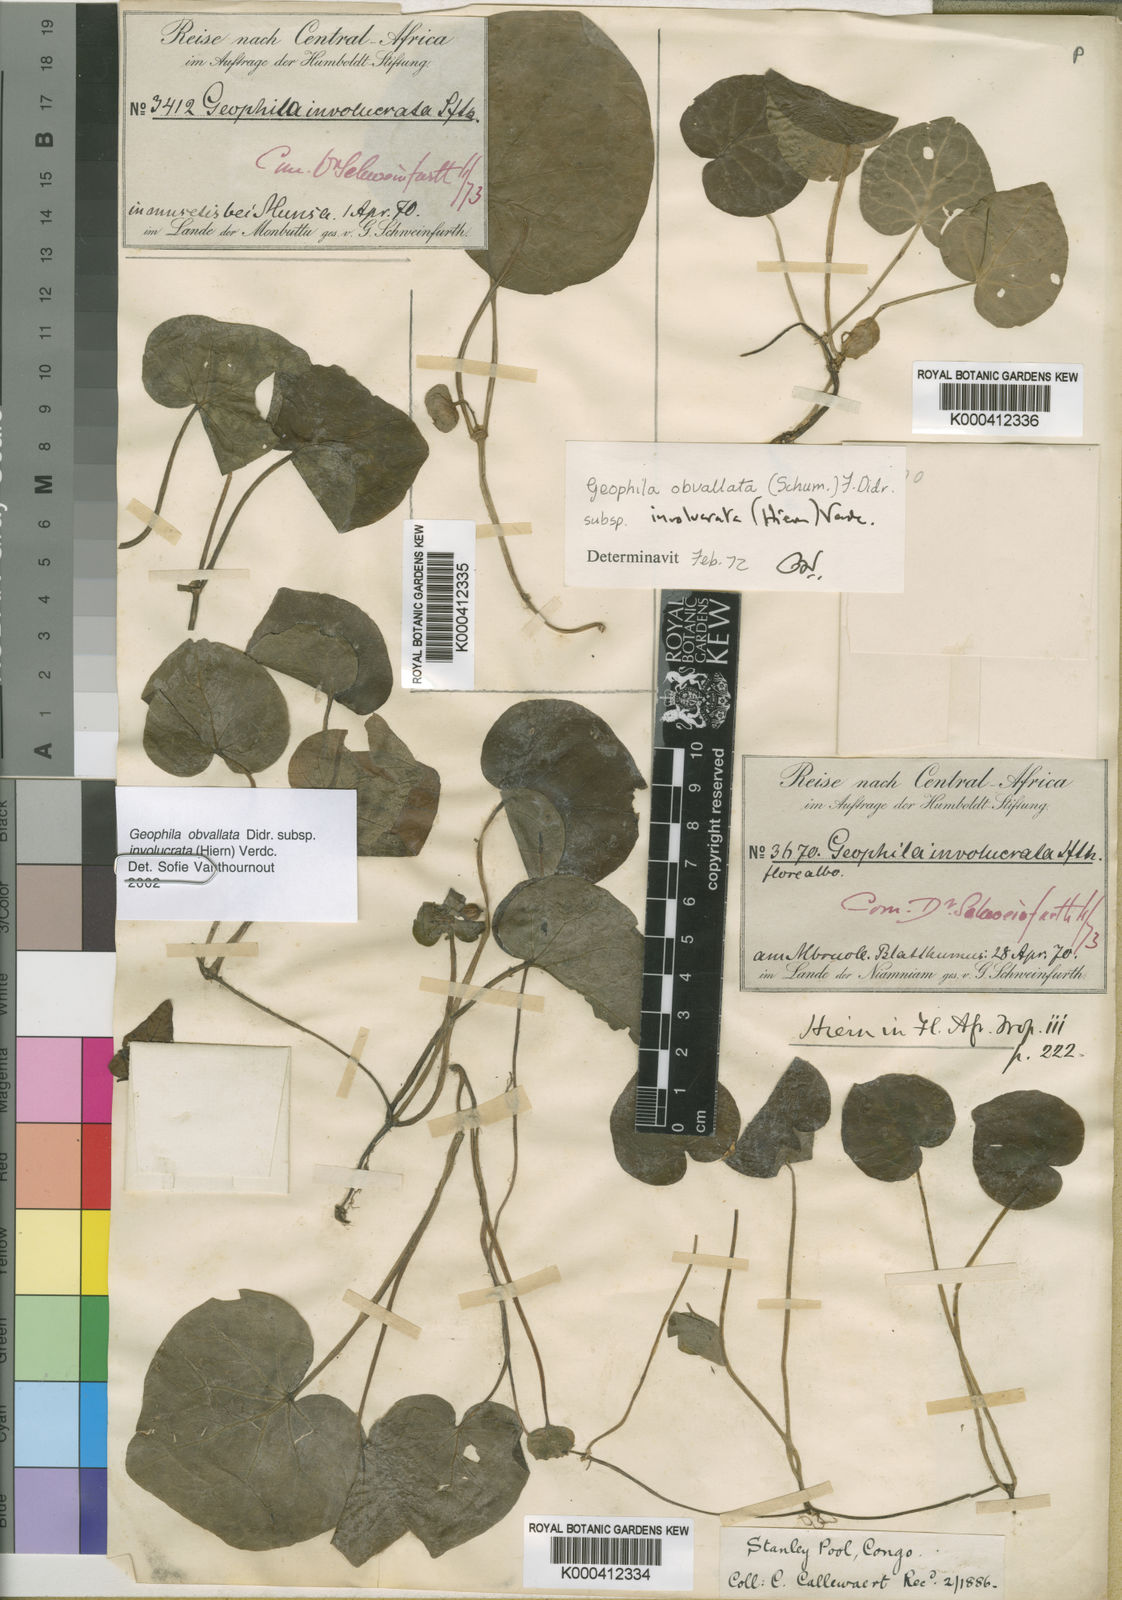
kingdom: Plantae
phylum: Tracheophyta
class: Magnoliopsida
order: Gentianales
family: Rubiaceae
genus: Geophila
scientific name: Geophila obvallata
